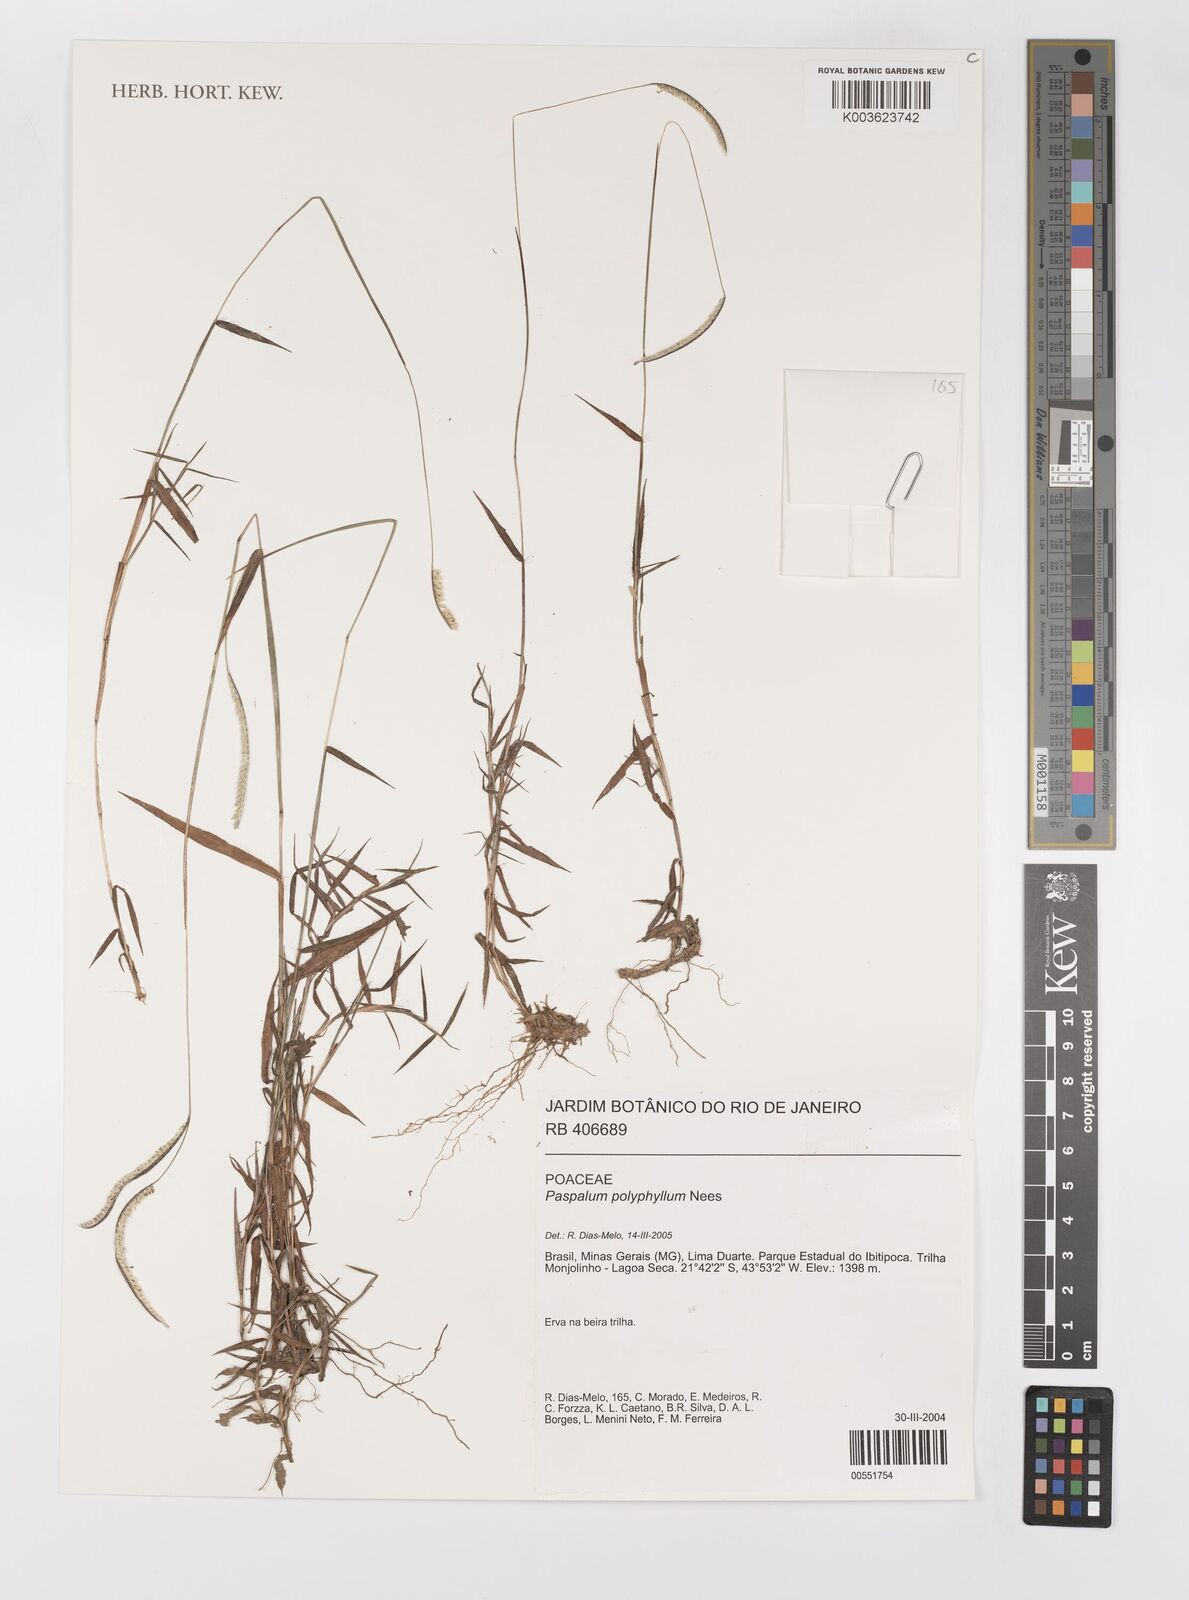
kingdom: Plantae
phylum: Tracheophyta
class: Liliopsida
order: Poales
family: Poaceae
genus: Paspalum
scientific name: Paspalum polyphyllum
